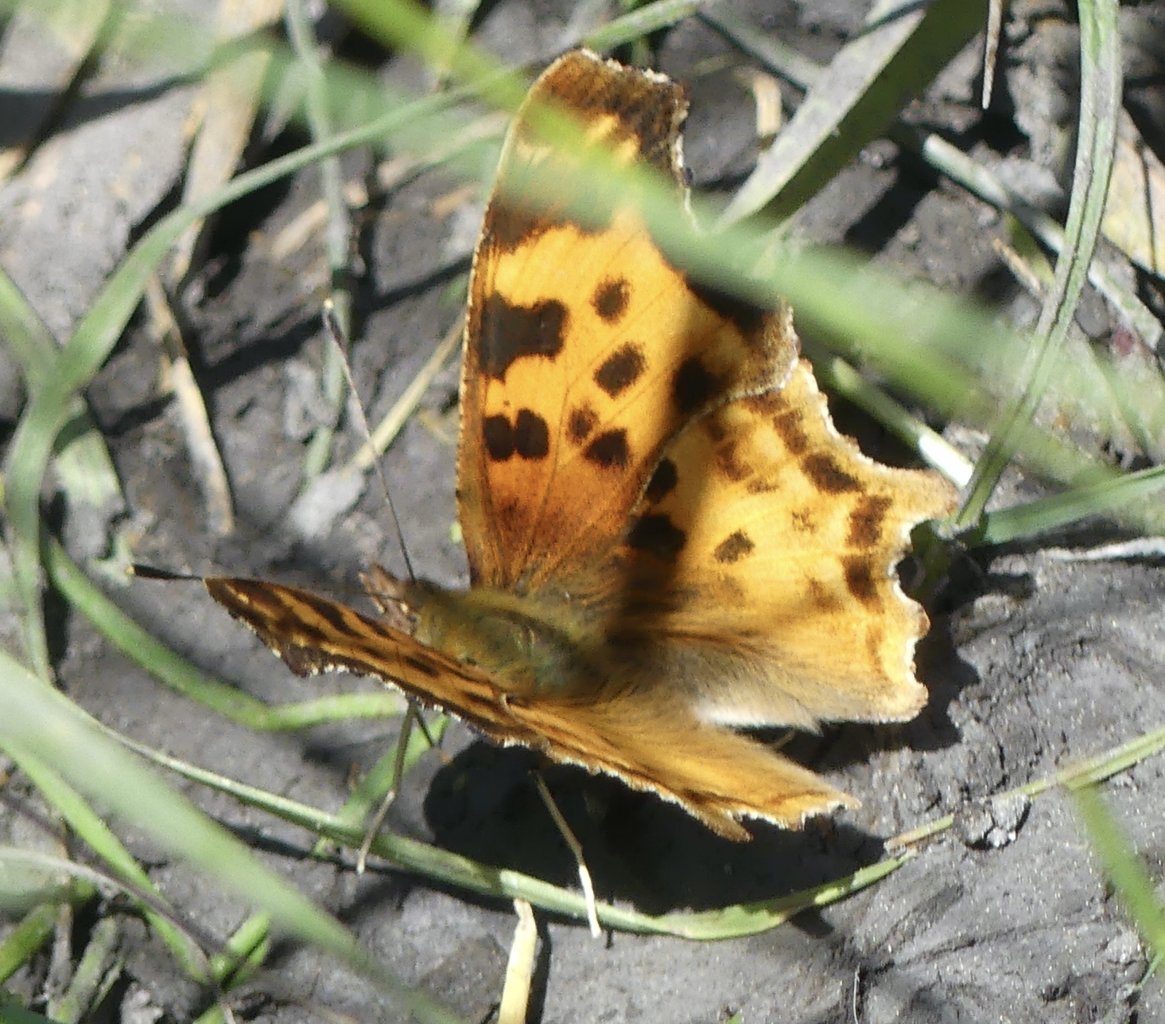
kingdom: Animalia
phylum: Arthropoda
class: Insecta
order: Lepidoptera
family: Nymphalidae
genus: Polygonia
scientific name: Polygonia satyrus
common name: Satyr Comma
